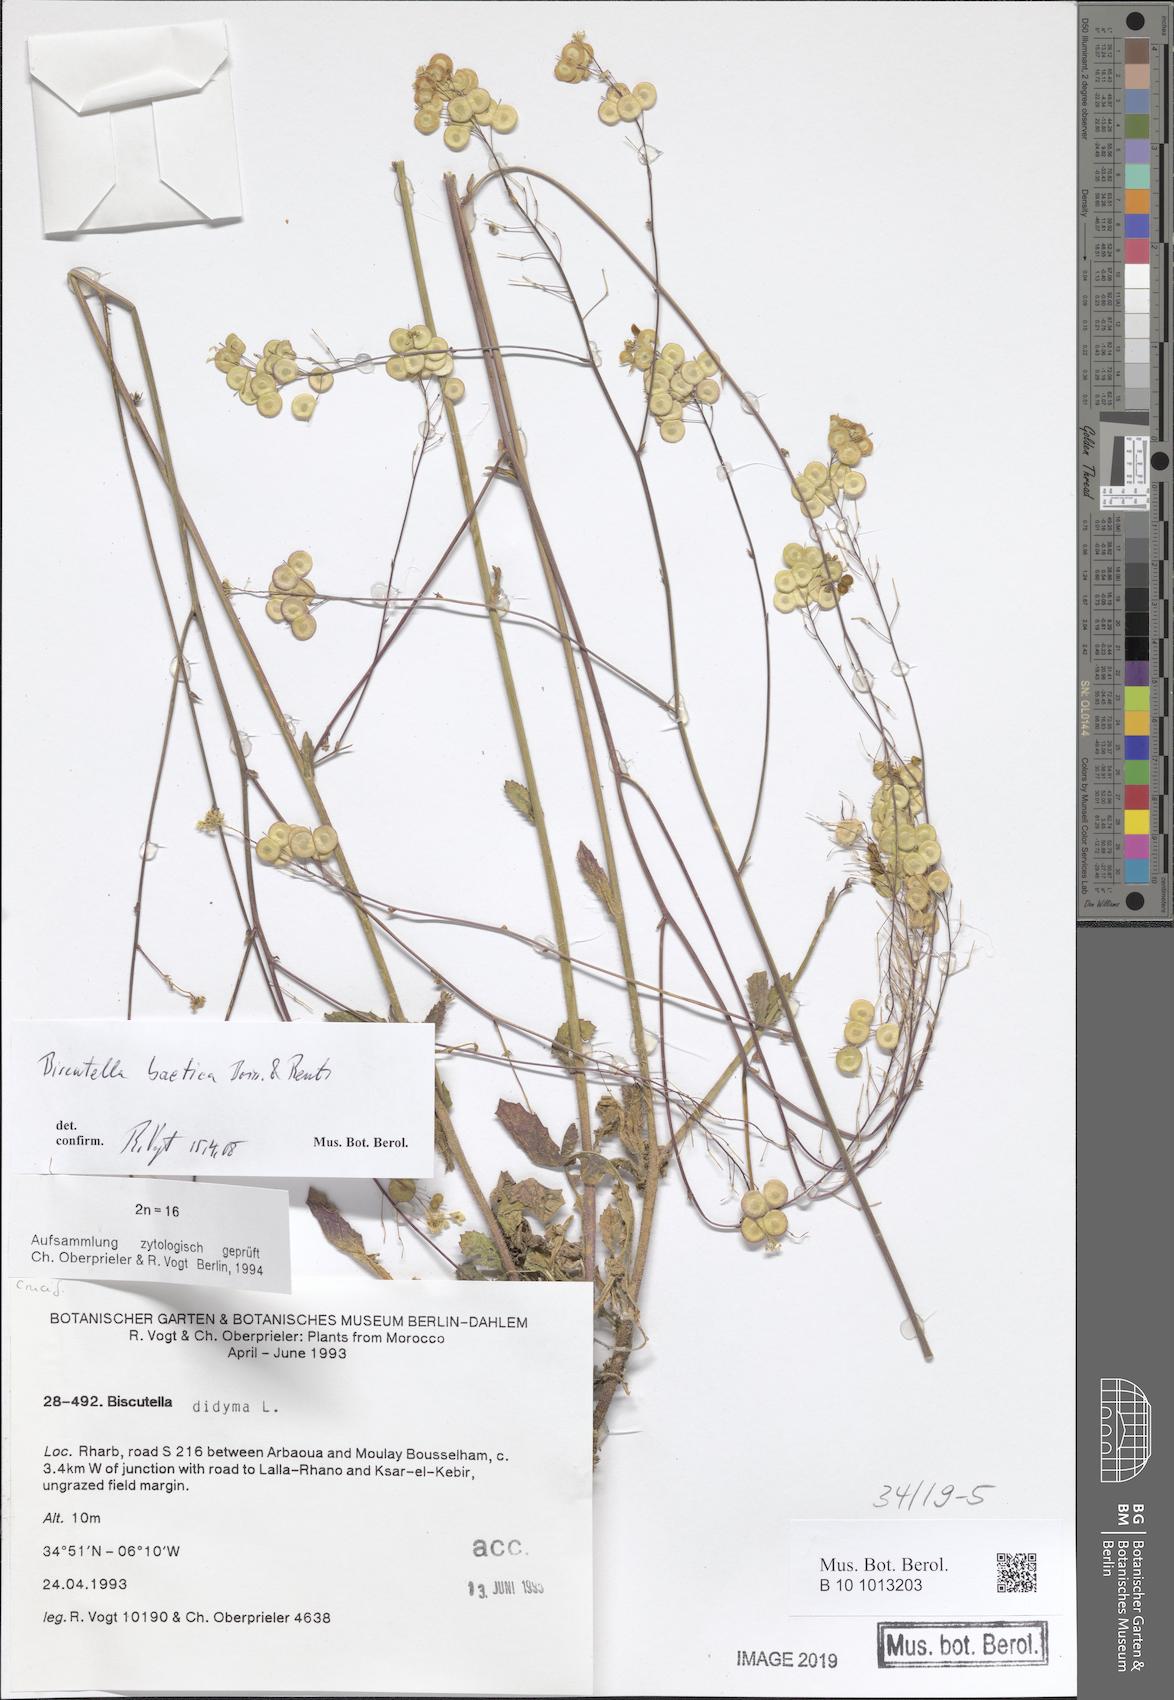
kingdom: Plantae
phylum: Tracheophyta
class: Magnoliopsida
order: Brassicales
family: Brassicaceae
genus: Biscutella
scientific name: Biscutella baetica
